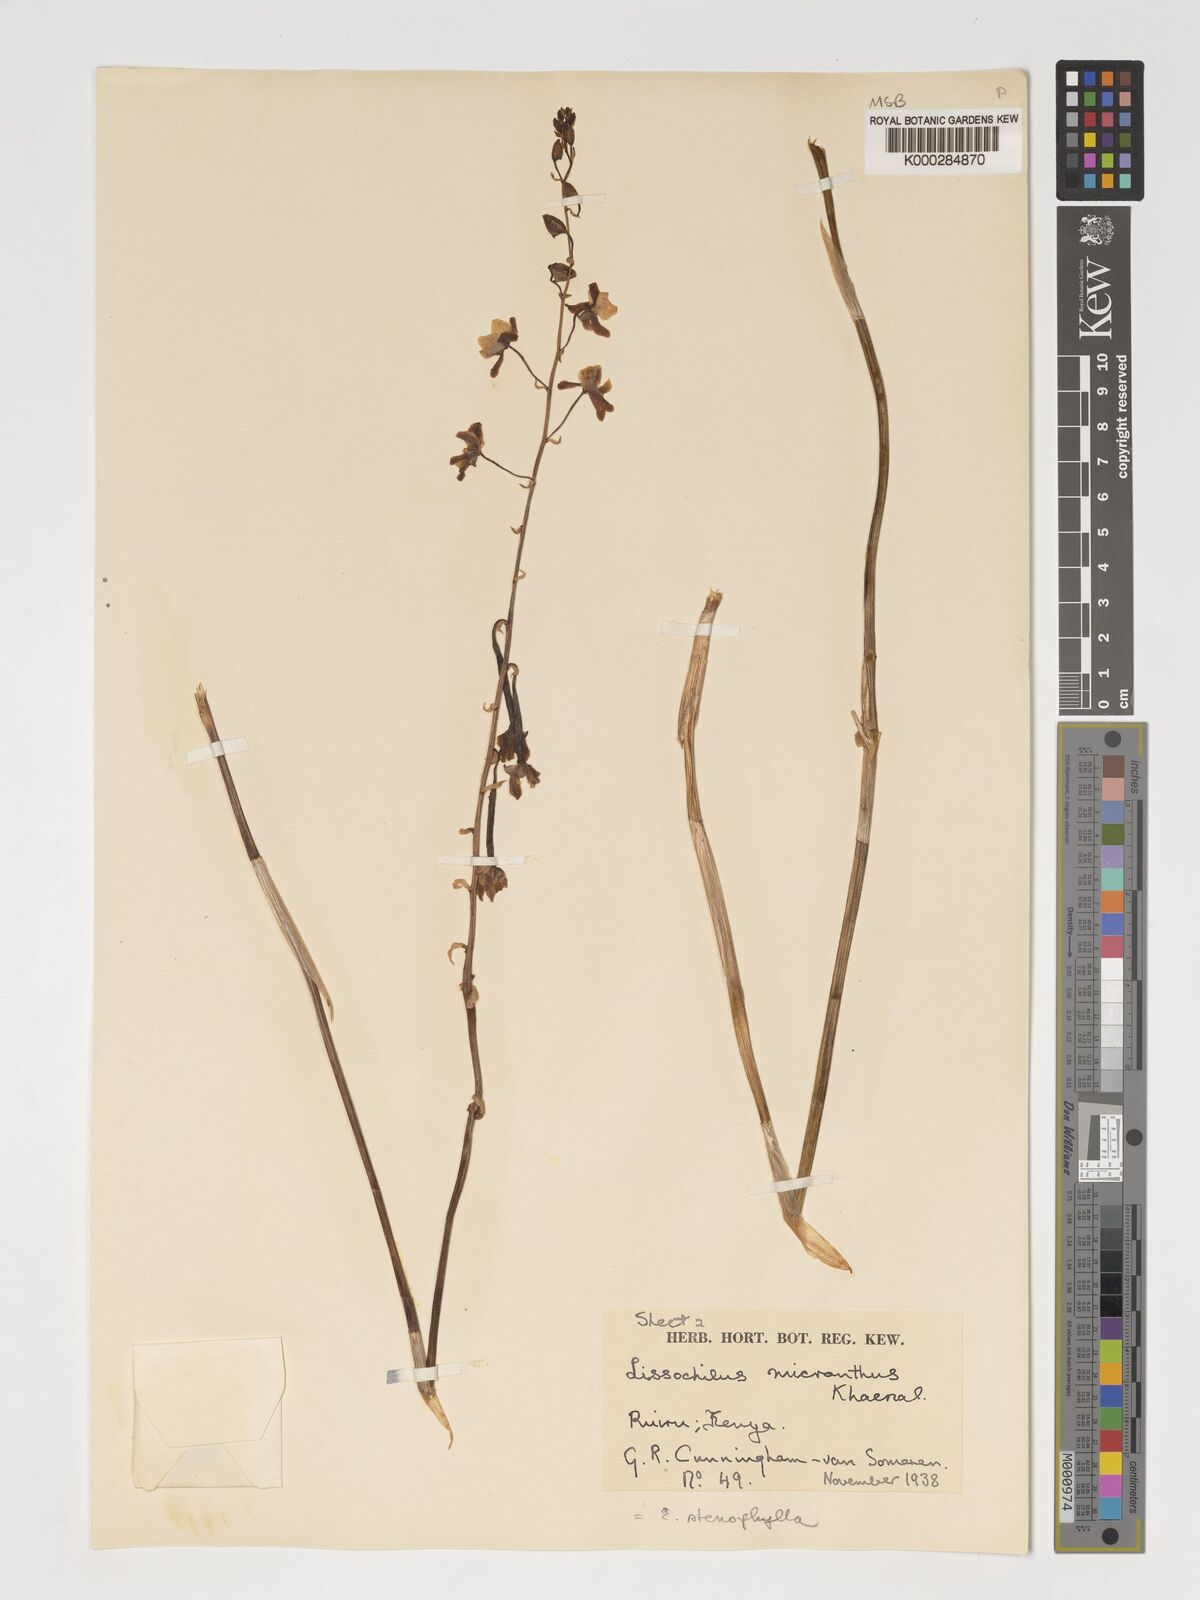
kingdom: Plantae
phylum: Tracheophyta
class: Liliopsida
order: Asparagales
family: Orchidaceae
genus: Eulophia
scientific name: Eulophia streptopetala
